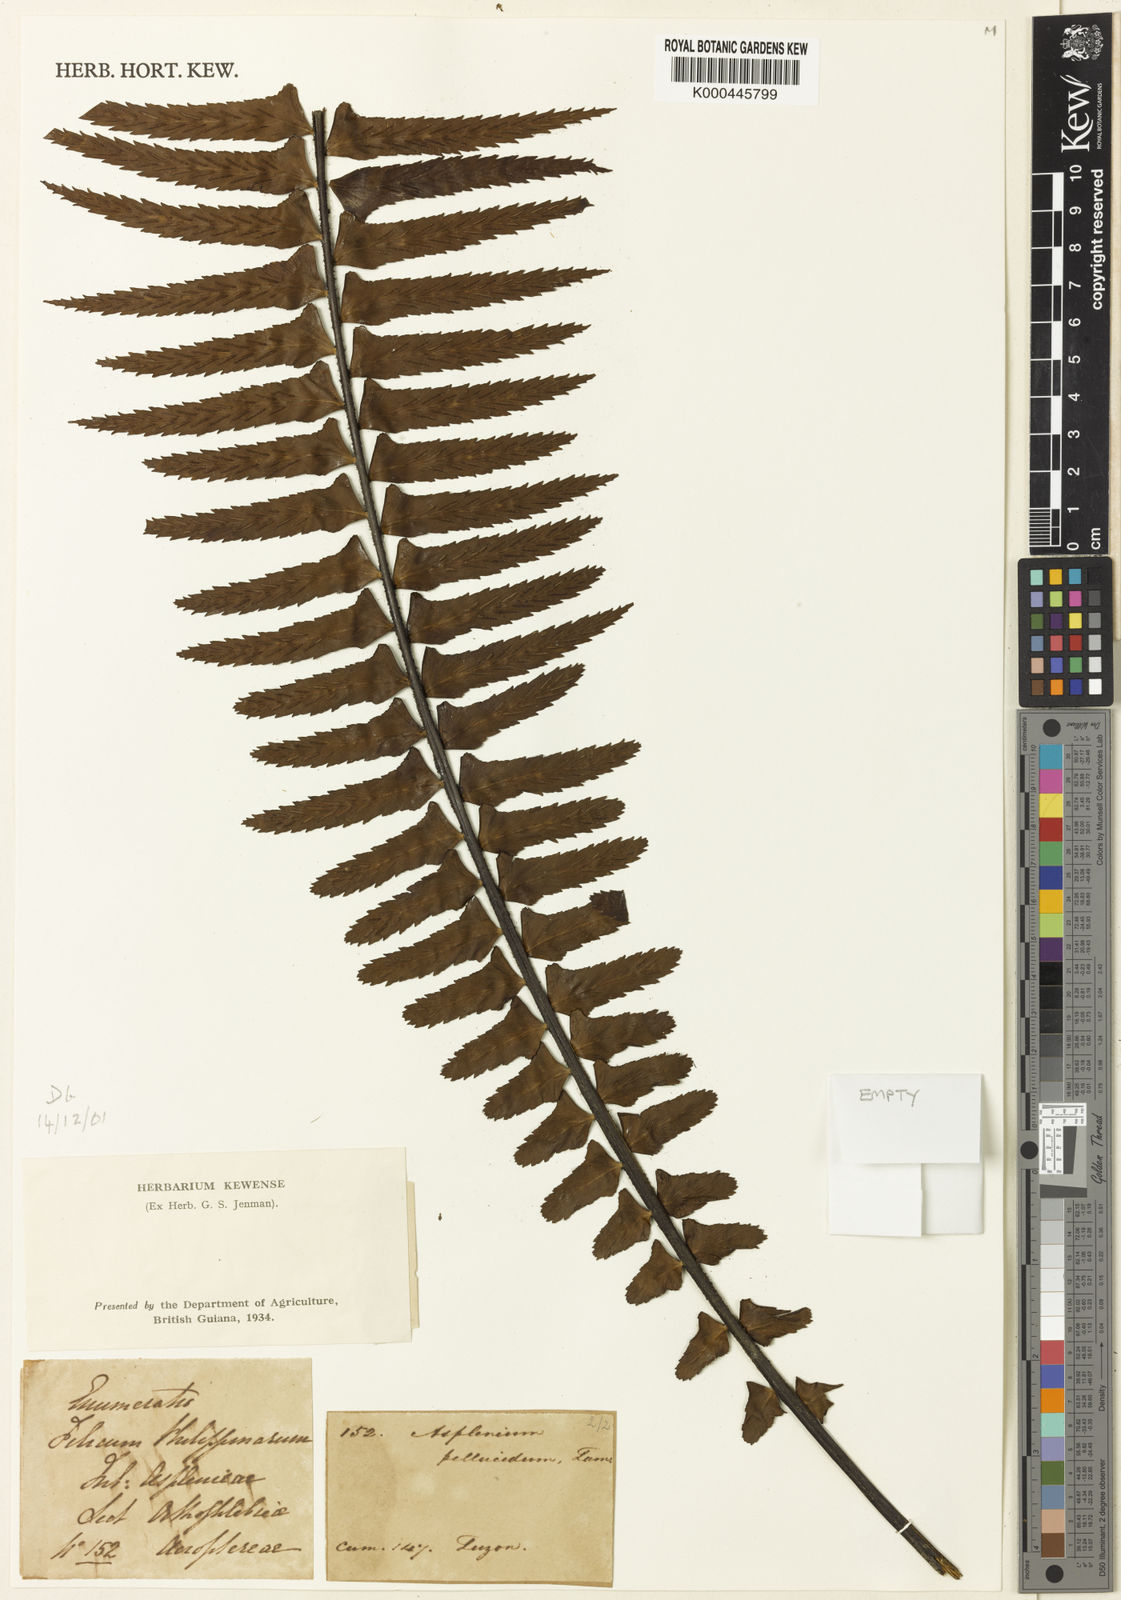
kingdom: Plantae
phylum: Tracheophyta
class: Polypodiopsida
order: Polypodiales
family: Aspleniaceae
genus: Asplenium
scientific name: Asplenium pellucidum
